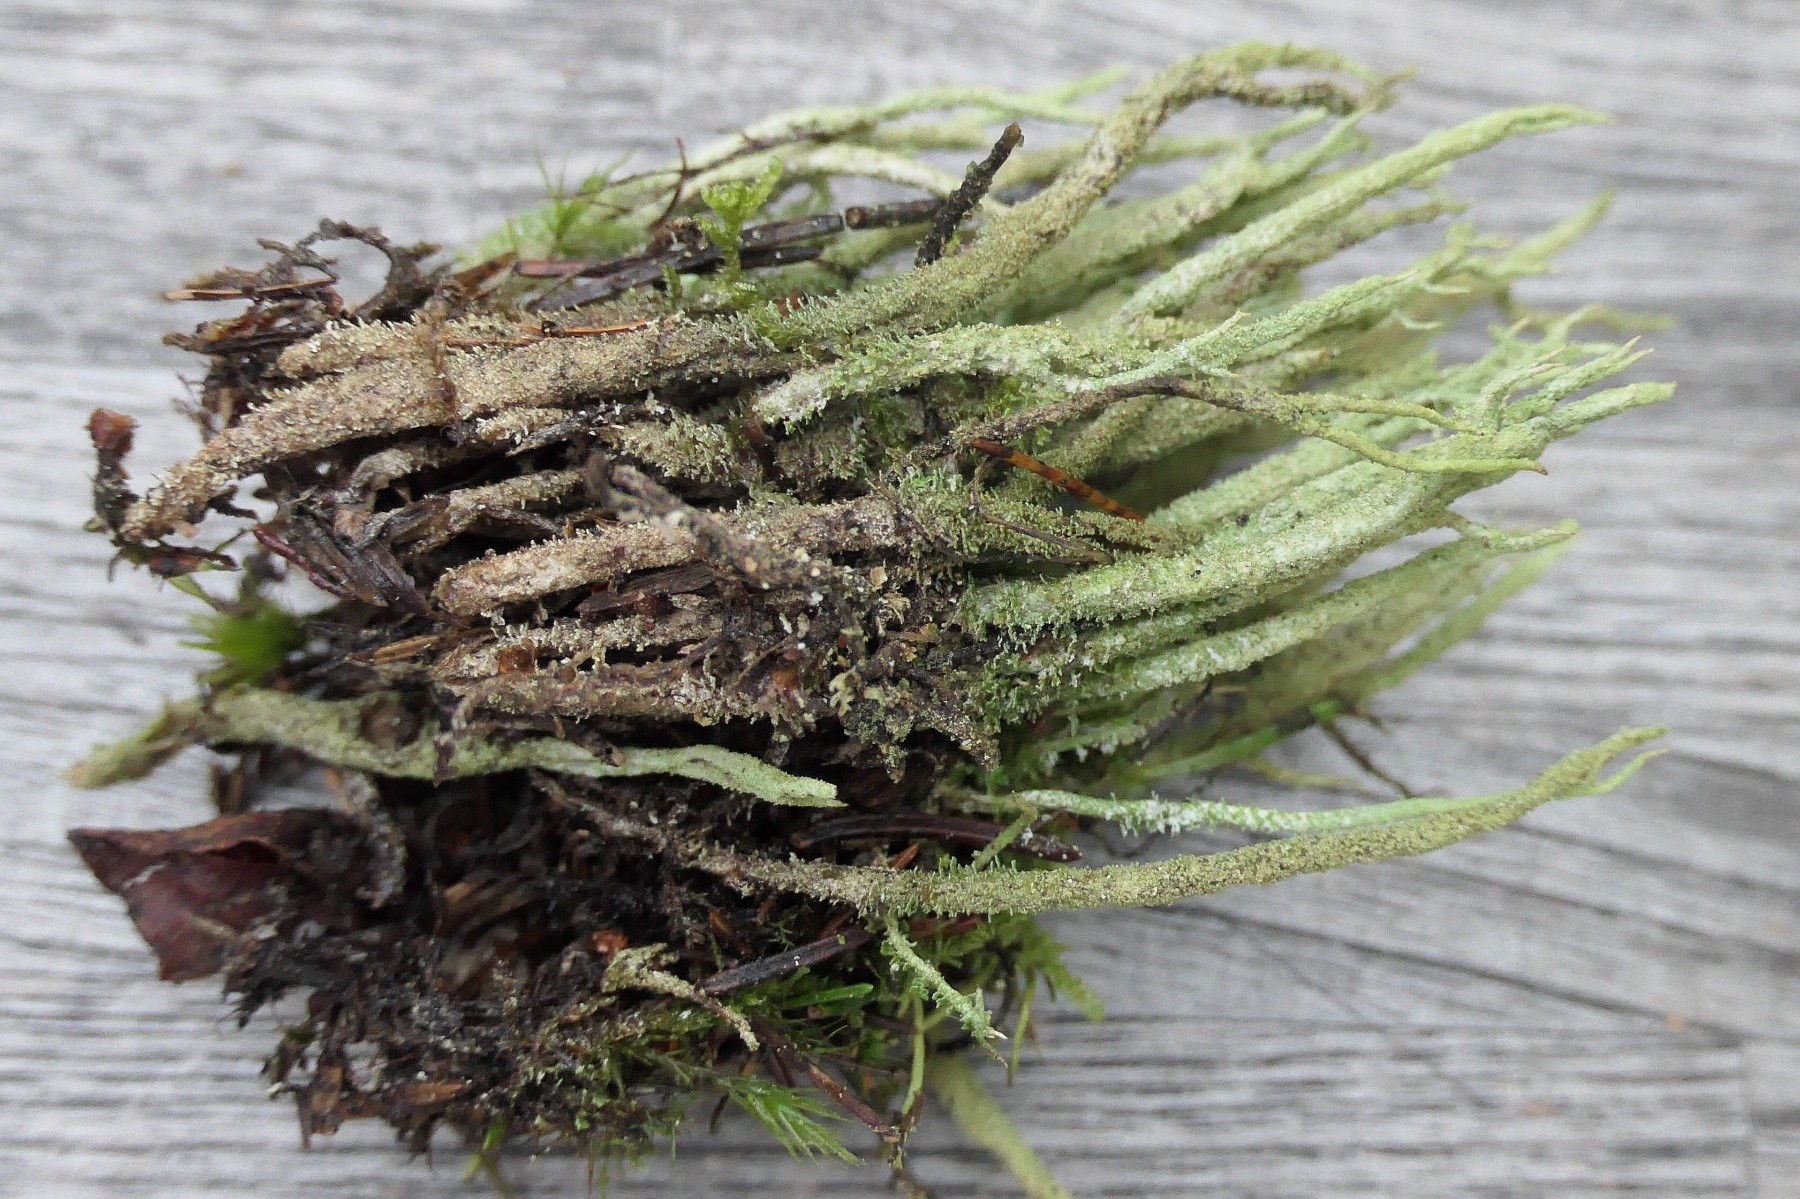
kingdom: Fungi
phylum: Ascomycota
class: Lecanoromycetes
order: Lecanorales
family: Cladoniaceae
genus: Cladonia
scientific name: Cladonia glauca
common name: grågrøn bægerlav
